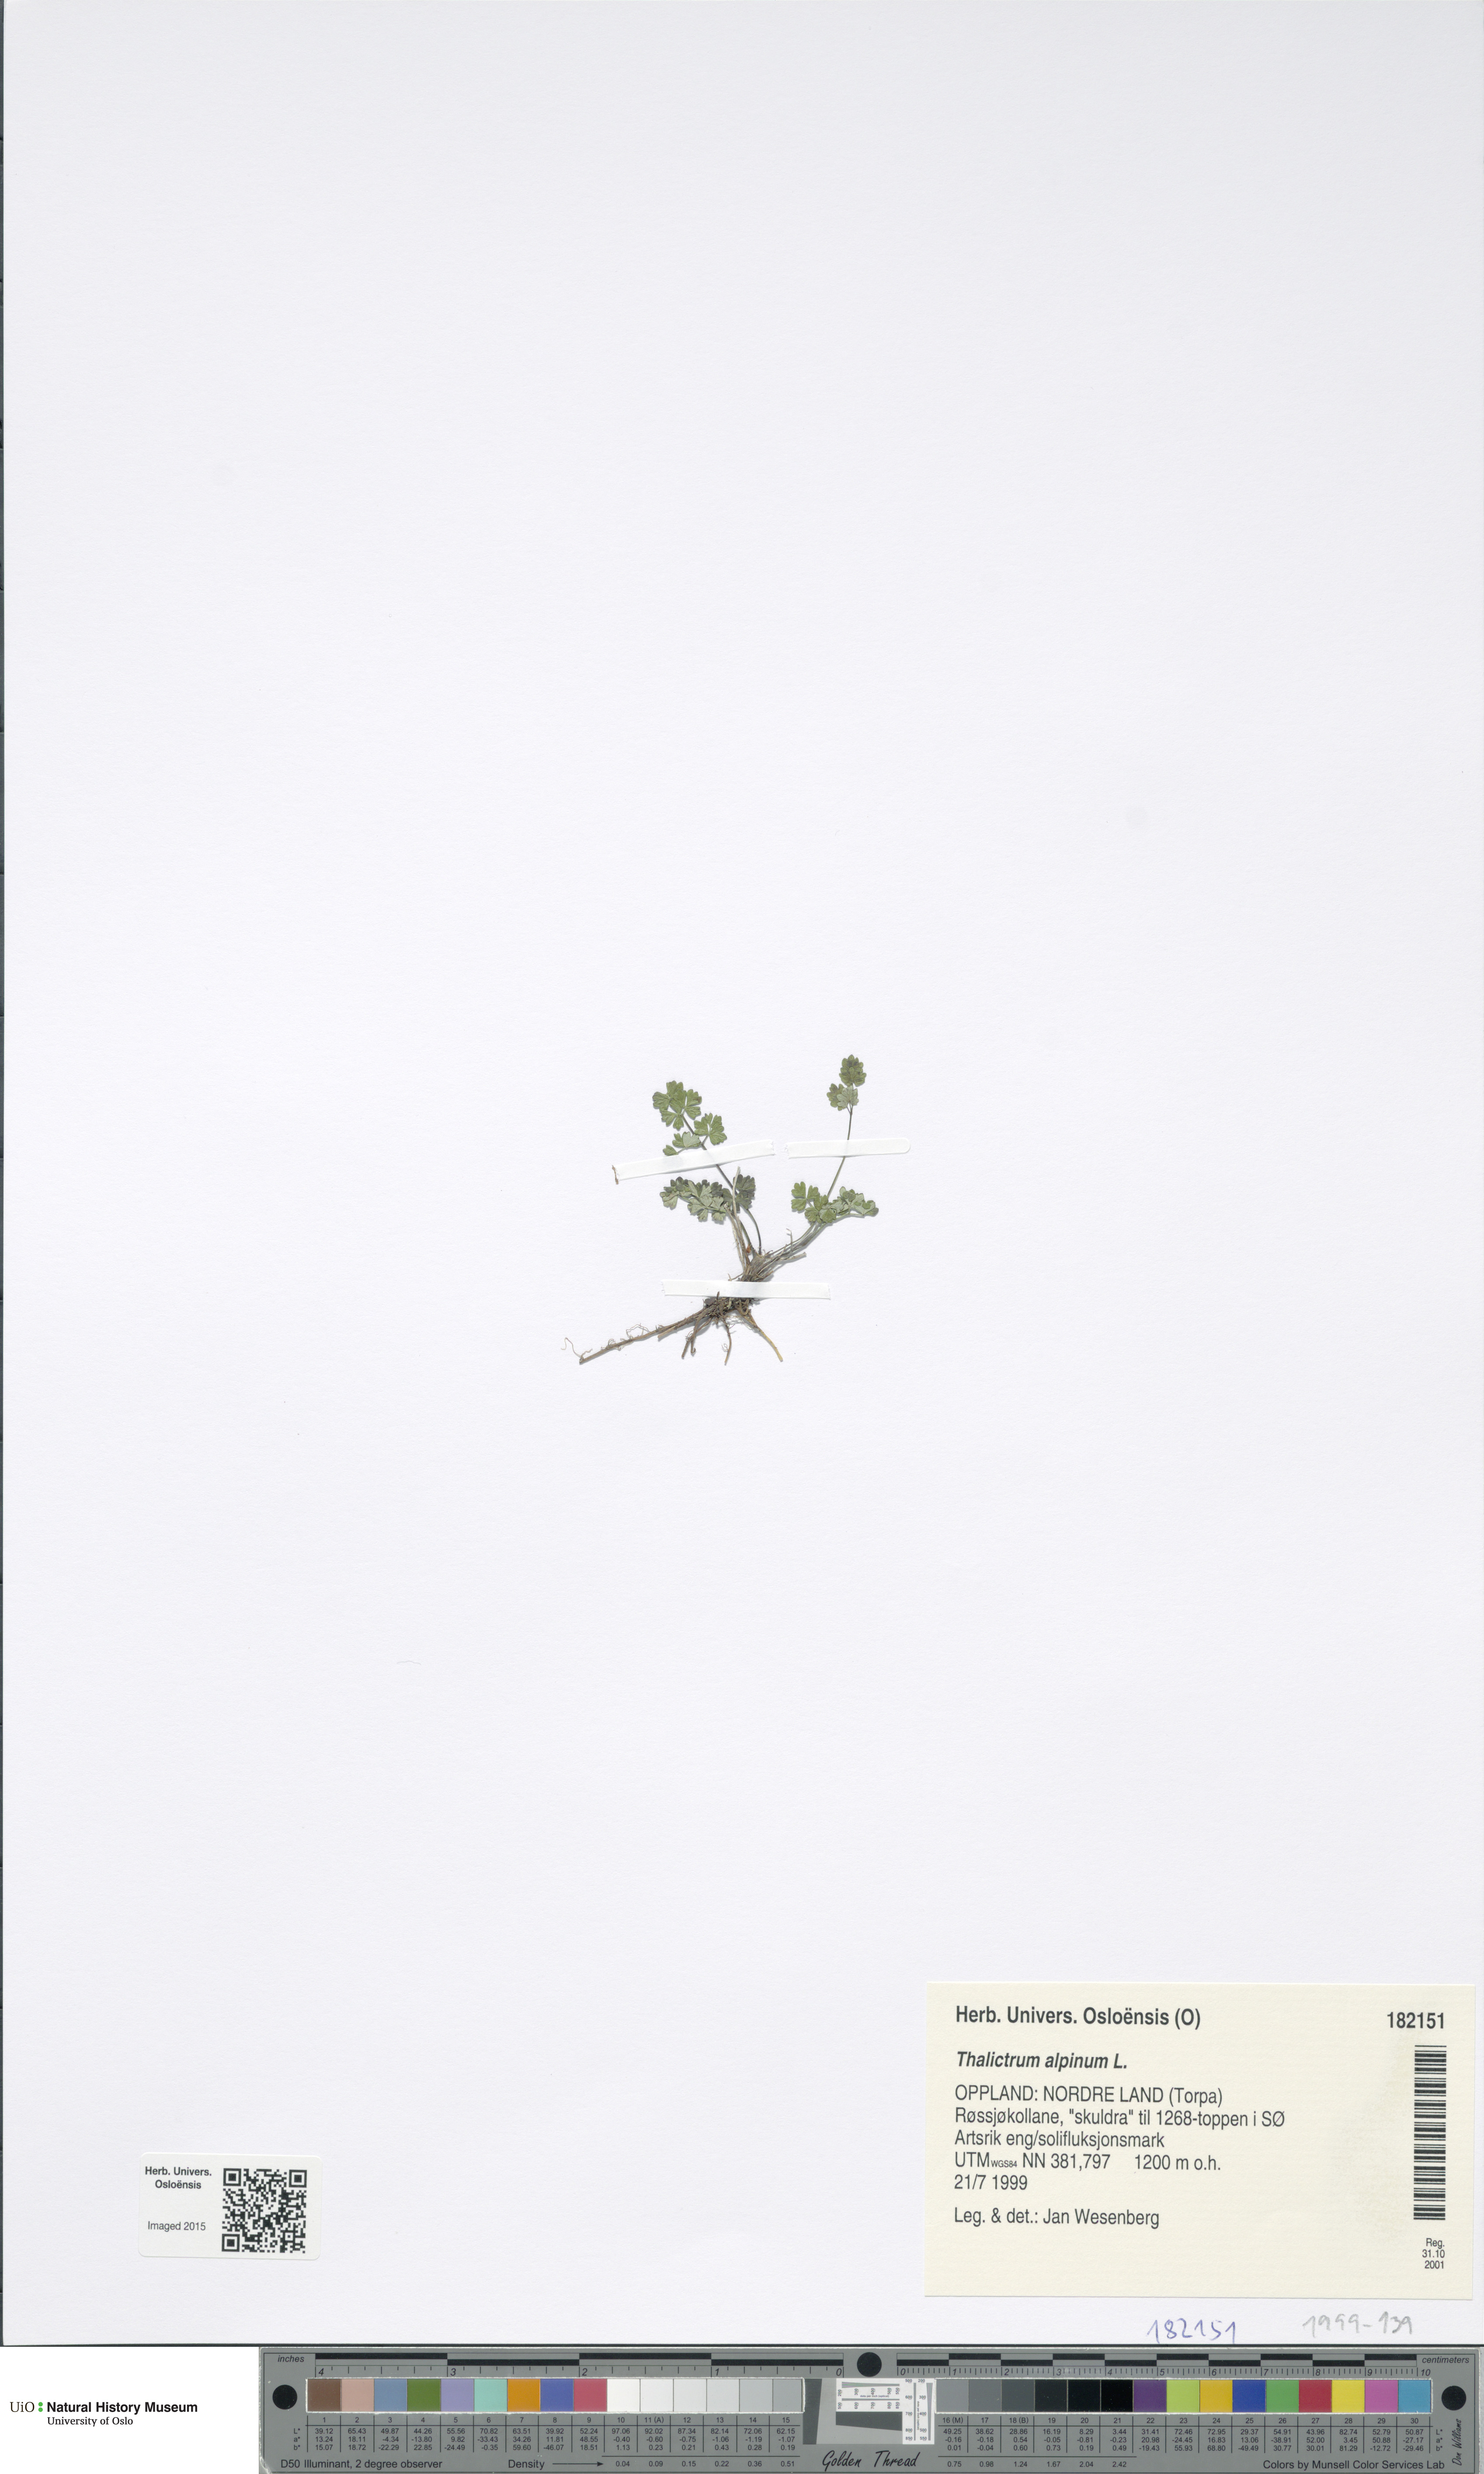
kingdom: Plantae
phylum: Tracheophyta
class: Magnoliopsida
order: Ranunculales
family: Ranunculaceae
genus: Thalictrum
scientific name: Thalictrum alpinum
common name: Alpine meadow-rue
